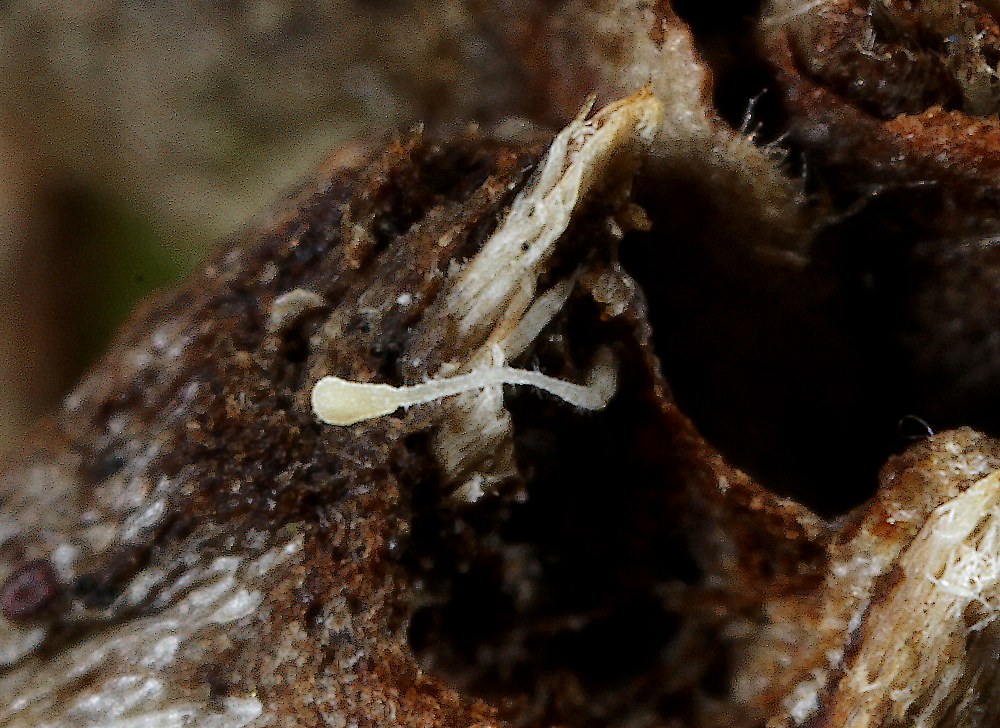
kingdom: Fungi
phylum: Basidiomycota
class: Agaricomycetes
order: Agaricales
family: Typhulaceae
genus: Typhula
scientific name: Typhula
